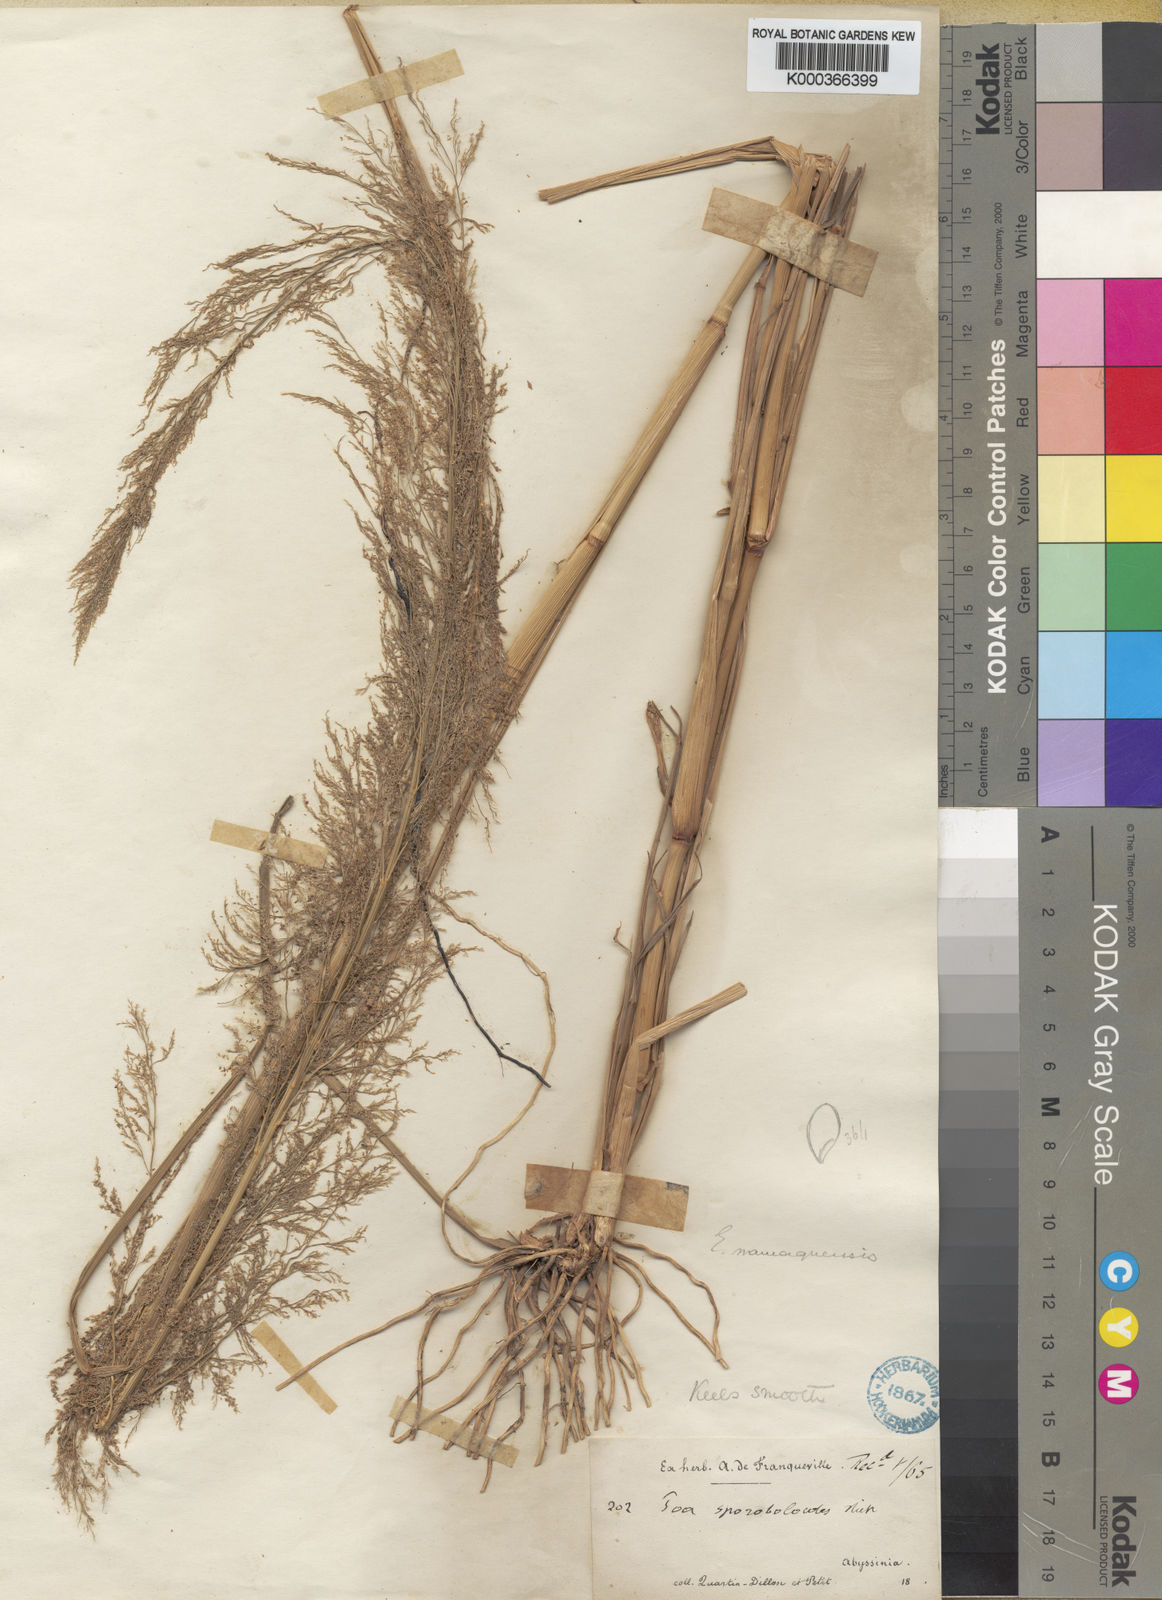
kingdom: Plantae
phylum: Tracheophyta
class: Liliopsida
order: Poales
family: Poaceae
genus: Eragrostis
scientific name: Eragrostis japonica
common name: Pond lovegrass
